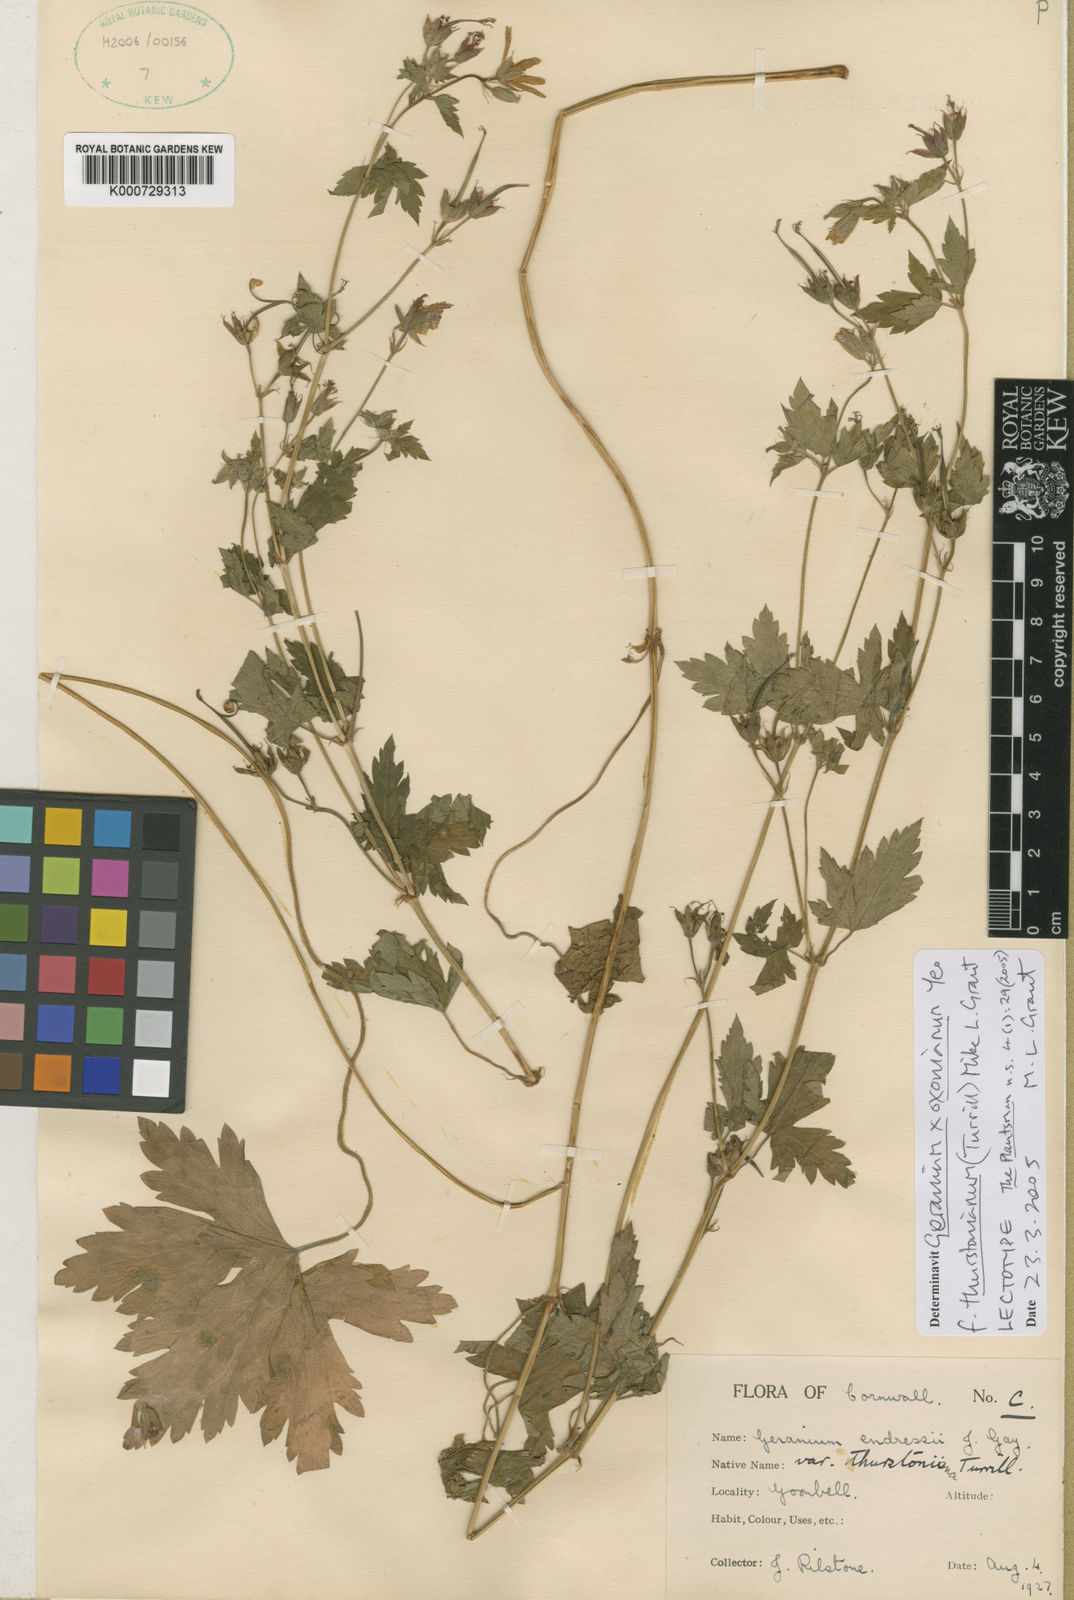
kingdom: Plantae
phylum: Tracheophyta
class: Magnoliopsida
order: Geraniales
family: Geraniaceae
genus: Geranium
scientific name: Geranium oxonianum
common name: Druce's crane's-bill
